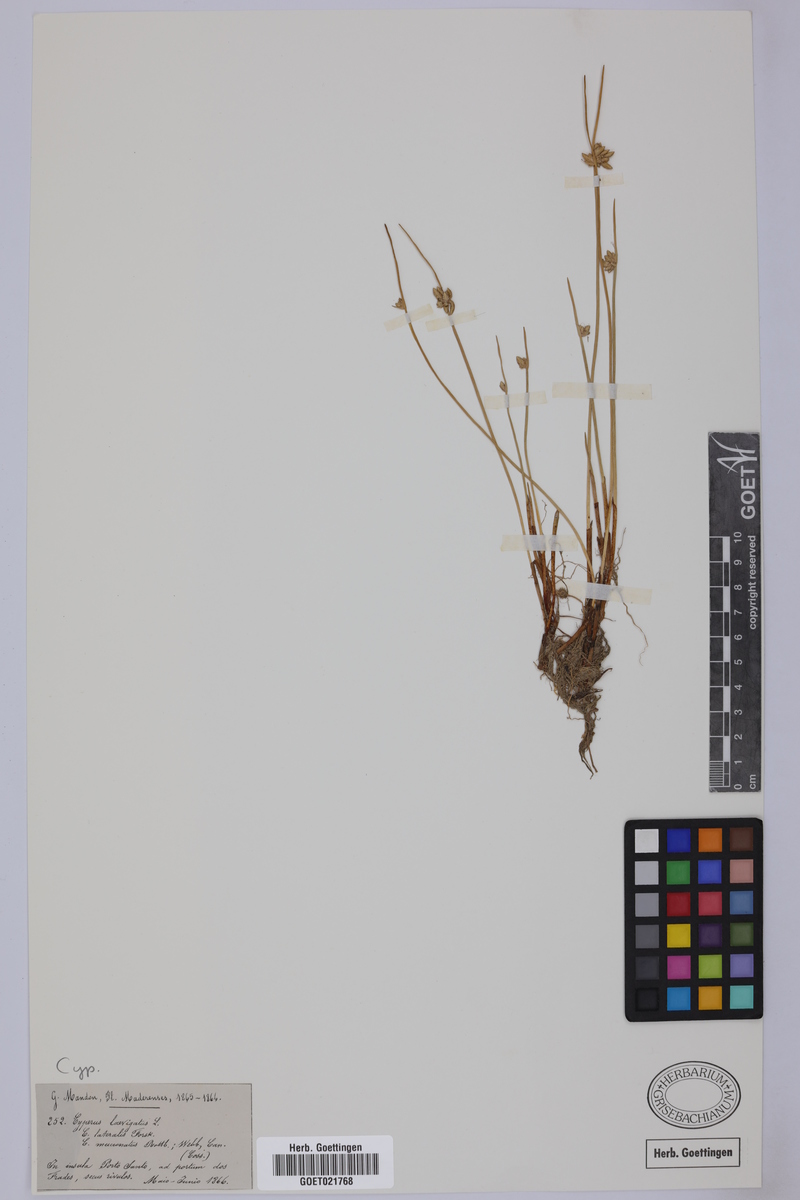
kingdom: Plantae
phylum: Tracheophyta
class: Liliopsida
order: Poales
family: Cyperaceae
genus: Cyperus
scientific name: Cyperus laevigatus
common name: Smooth flat sedge
